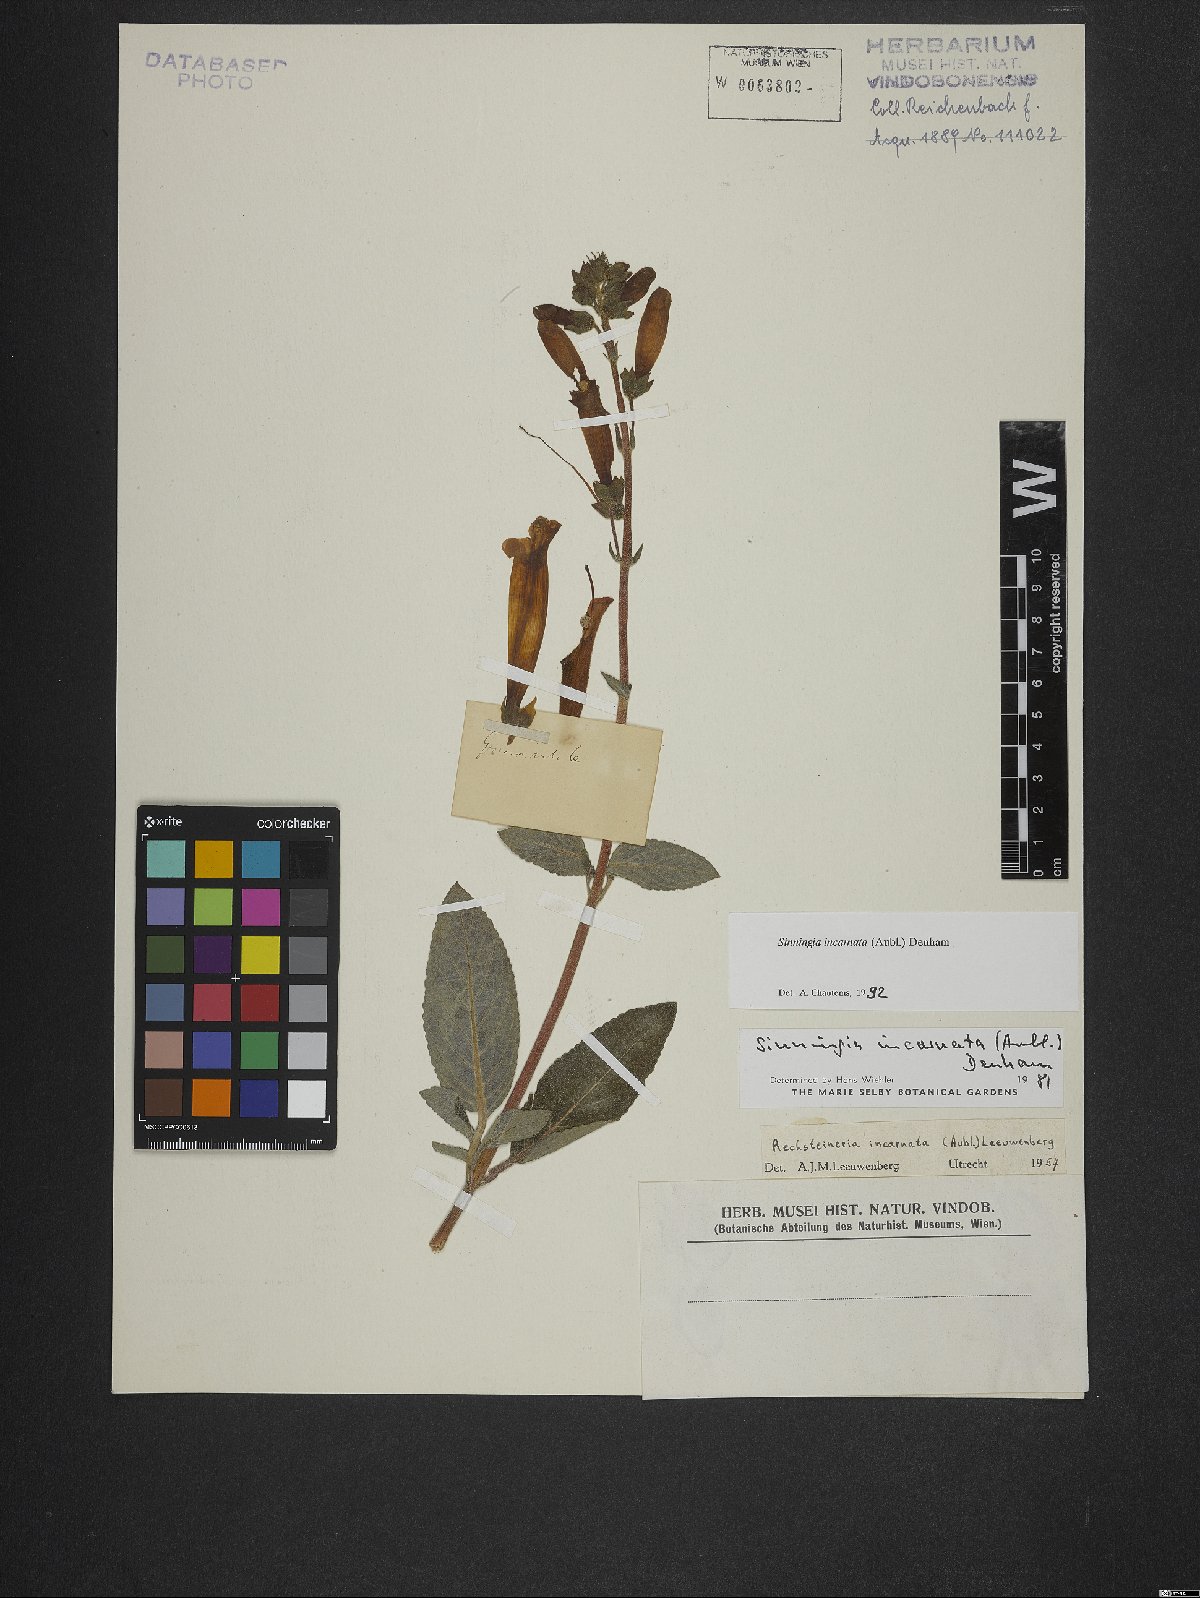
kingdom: Plantae
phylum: Tracheophyta
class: Magnoliopsida
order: Lamiales
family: Gesneriaceae
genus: Sinningia
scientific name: Sinningia incarnata
